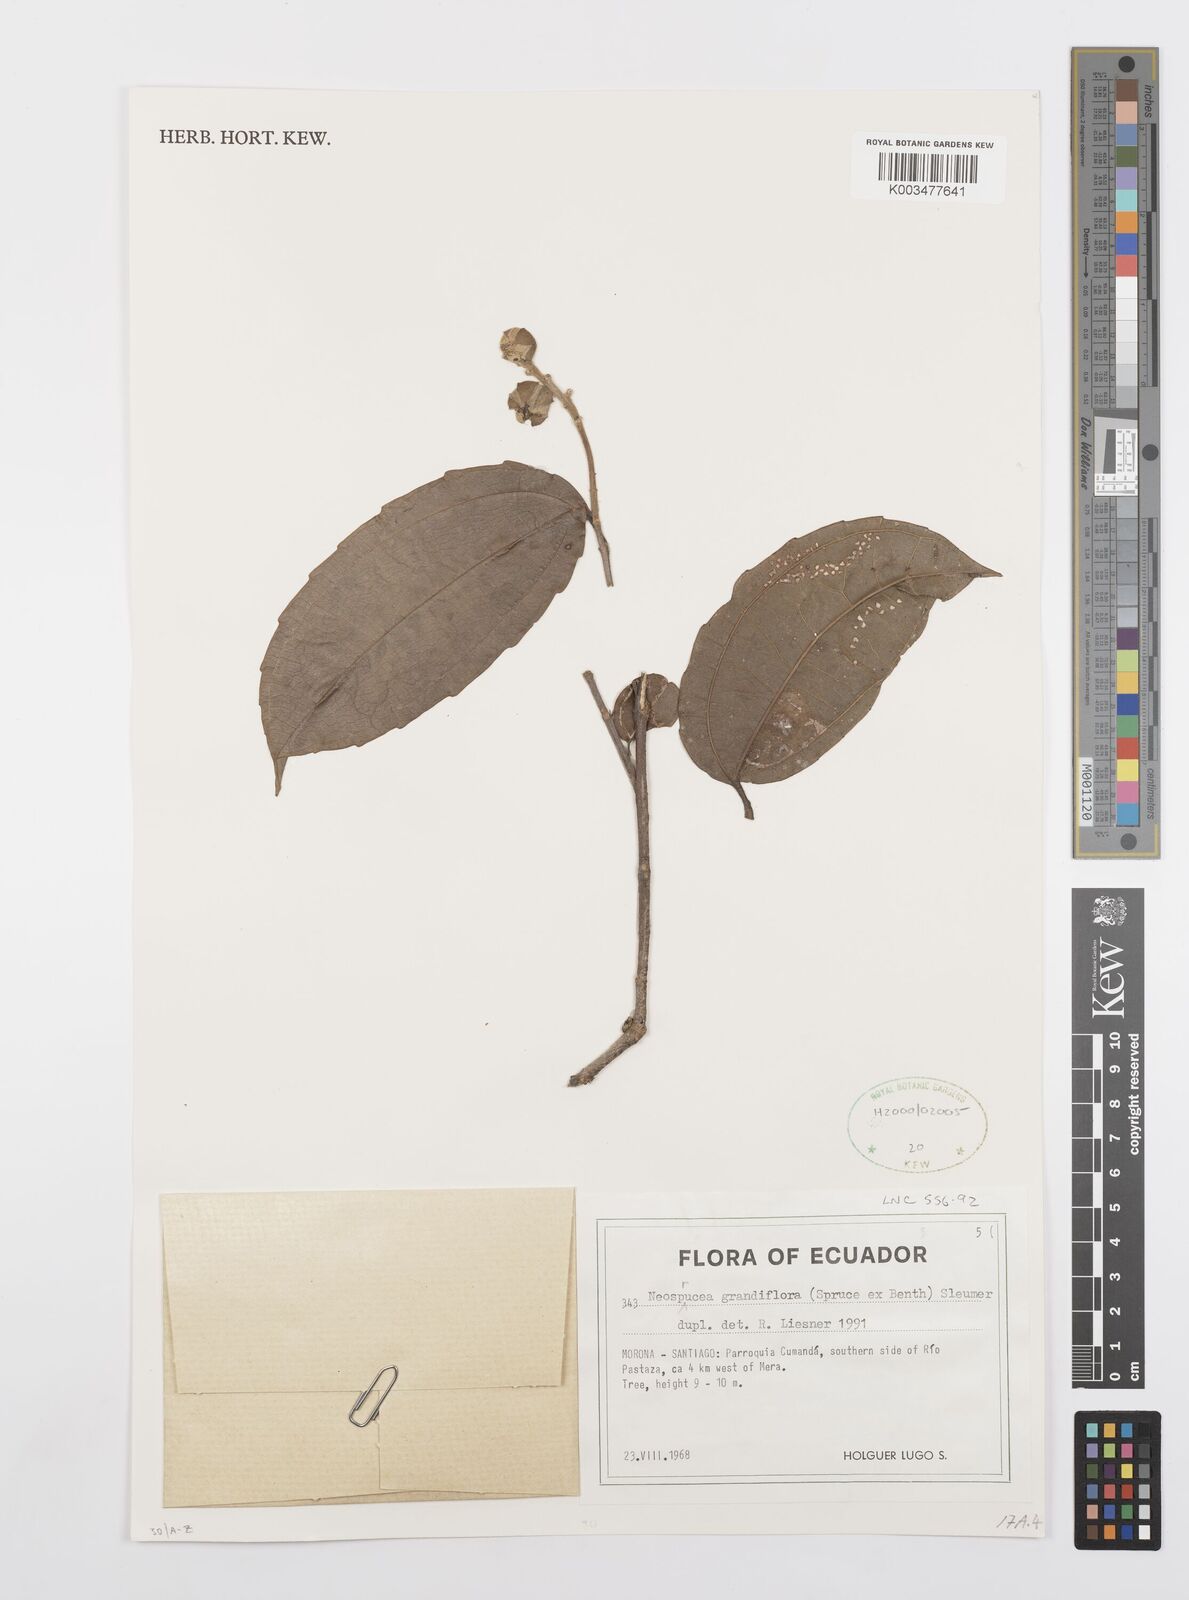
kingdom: Plantae
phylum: Tracheophyta
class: Magnoliopsida
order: Malpighiales
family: Salicaceae
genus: Neosprucea
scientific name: Neosprucea grandiflora
